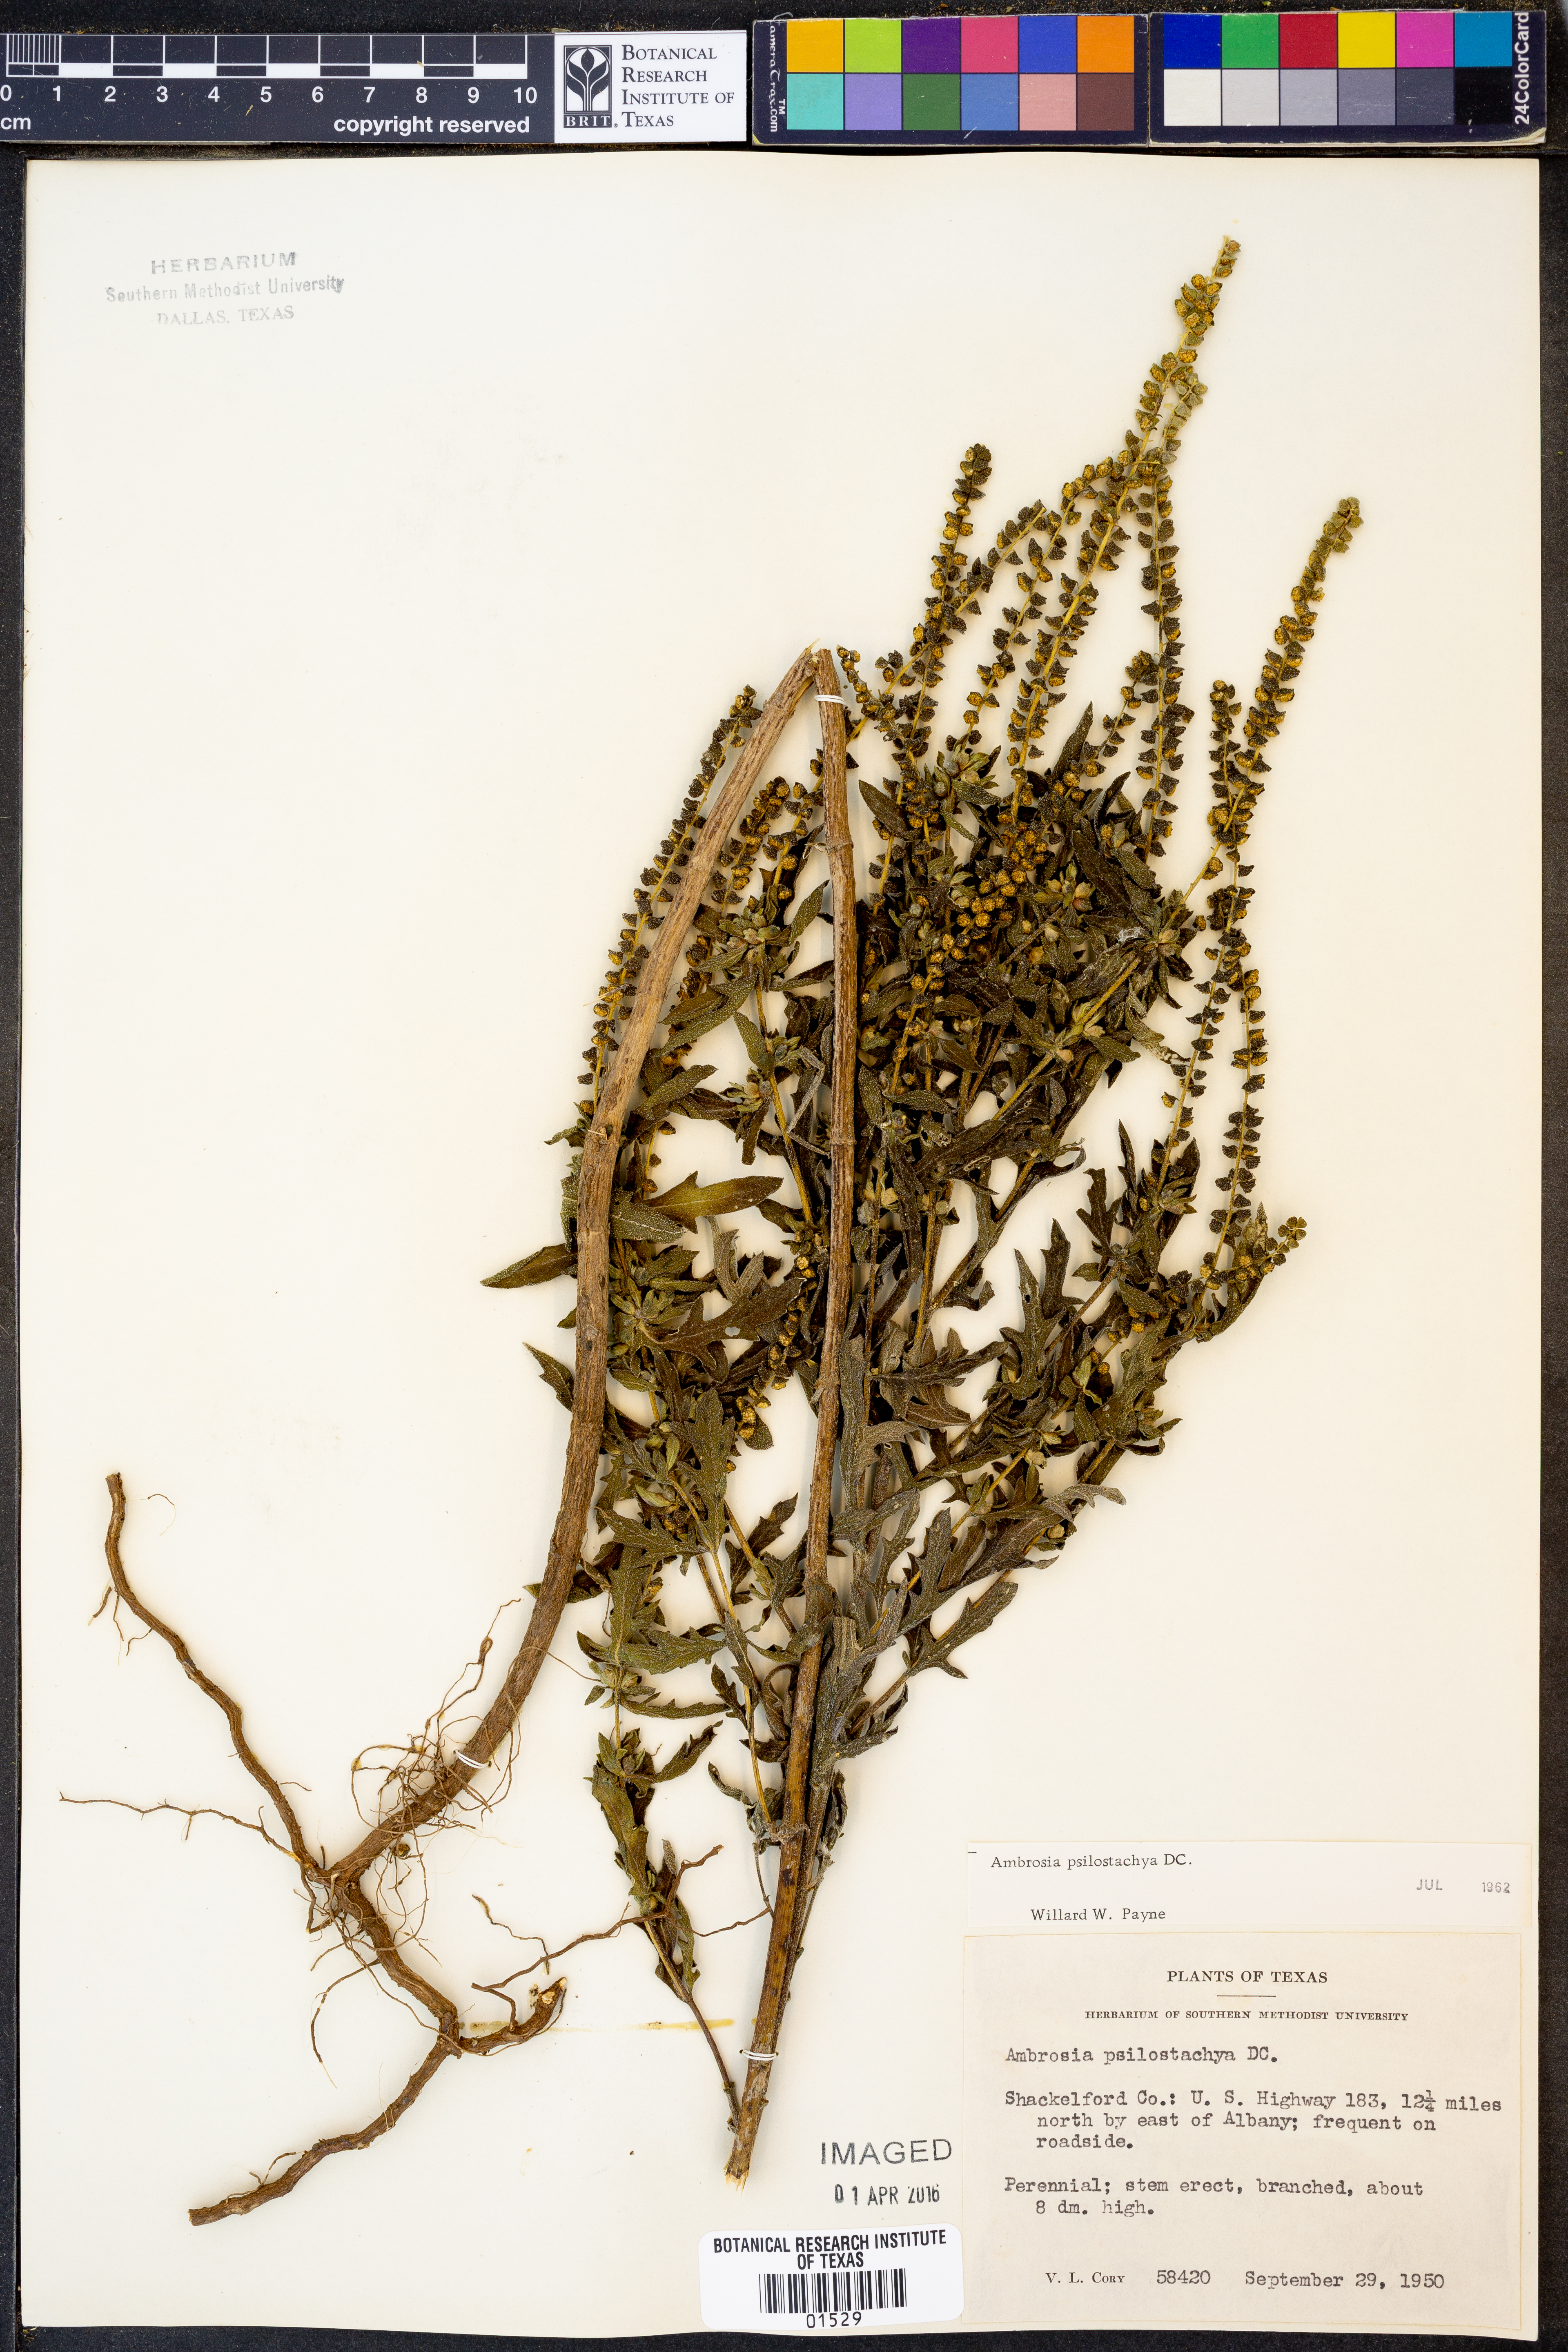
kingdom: Plantae
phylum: Tracheophyta
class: Magnoliopsida
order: Asterales
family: Asteraceae
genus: Ambrosia
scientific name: Ambrosia psilostachya
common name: Perennial ragweed
